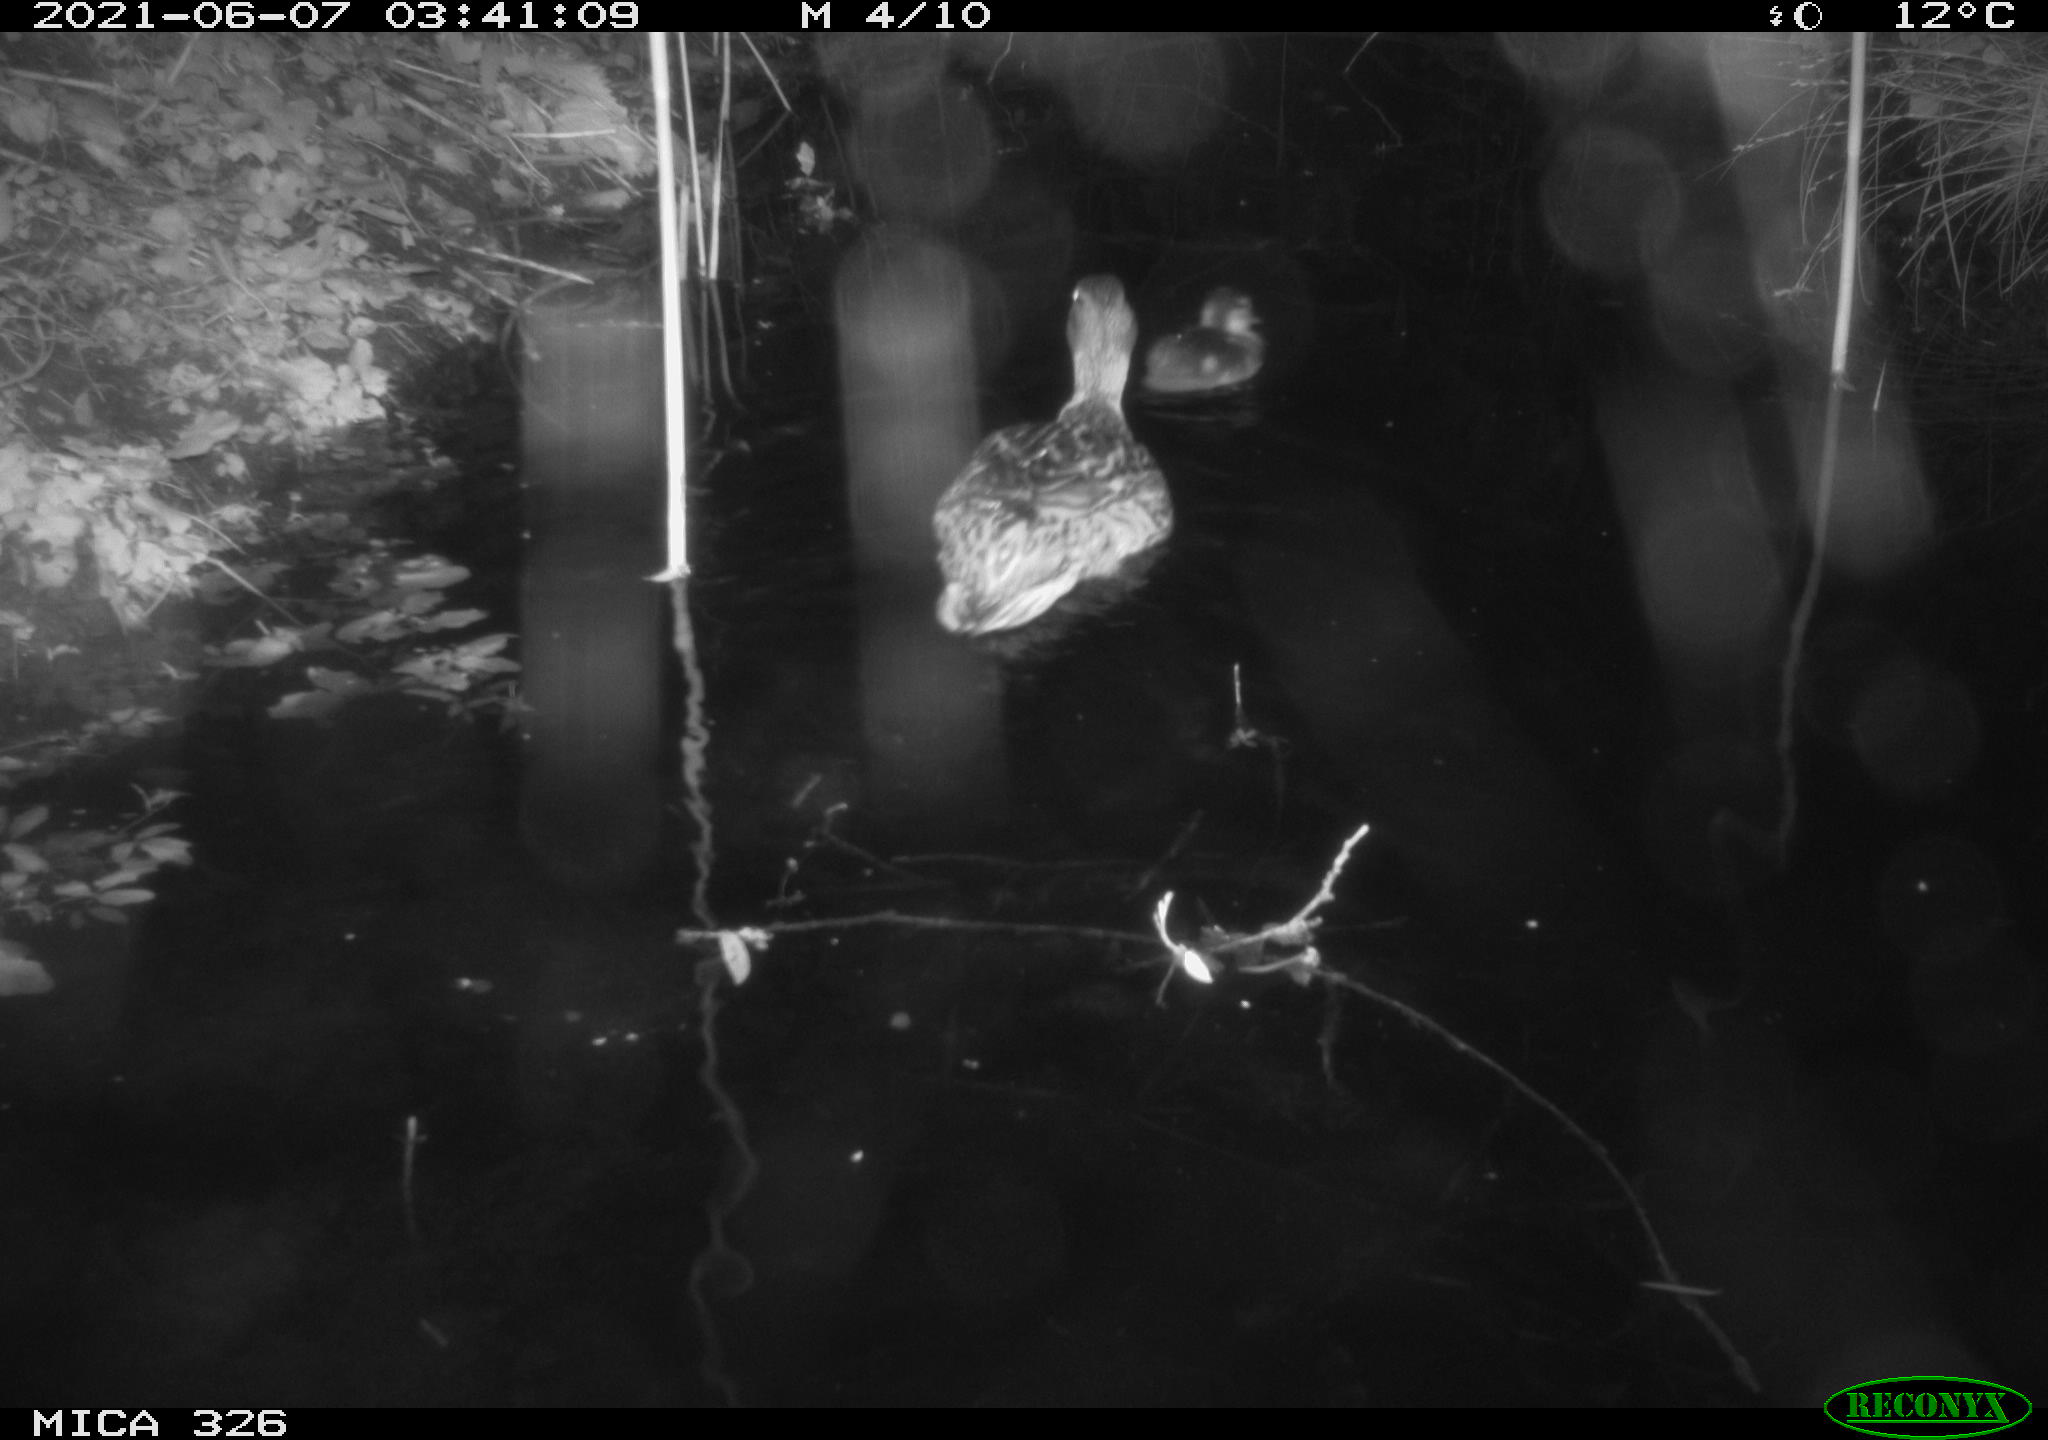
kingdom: Animalia
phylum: Chordata
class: Aves
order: Anseriformes
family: Anatidae
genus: Anas
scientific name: Anas platyrhynchos
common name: Mallard
